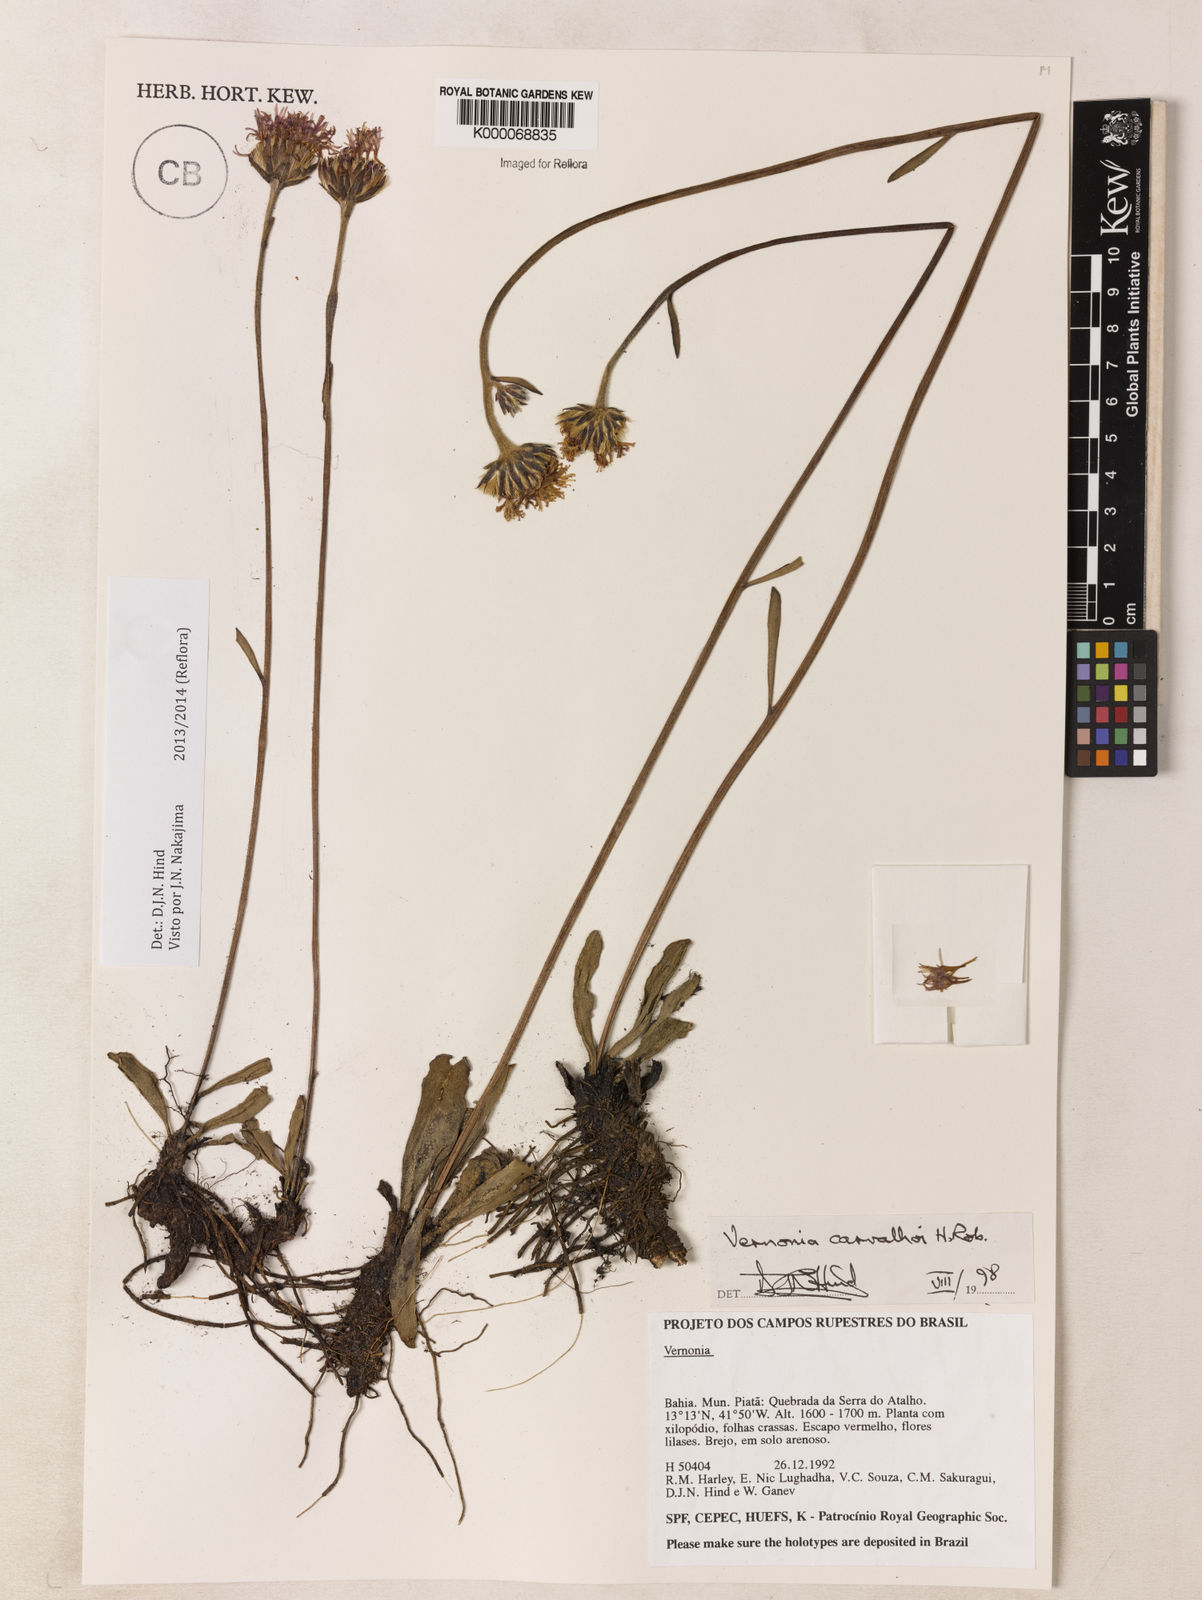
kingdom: Plantae
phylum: Tracheophyta
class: Magnoliopsida
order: Asterales
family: Asteraceae
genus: Lessingianthus
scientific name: Lessingianthus carvalhoi
